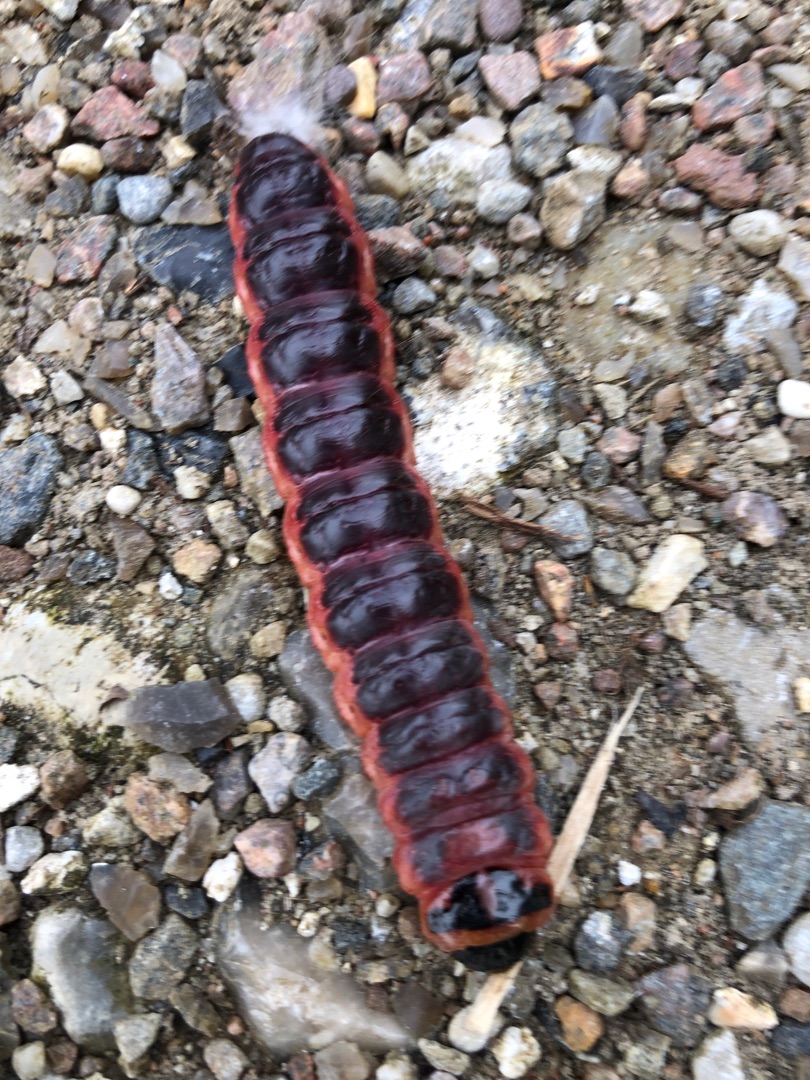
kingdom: Animalia
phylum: Arthropoda
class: Insecta
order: Lepidoptera
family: Cossidae
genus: Cossus
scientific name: Cossus cossus
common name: Pileborer
